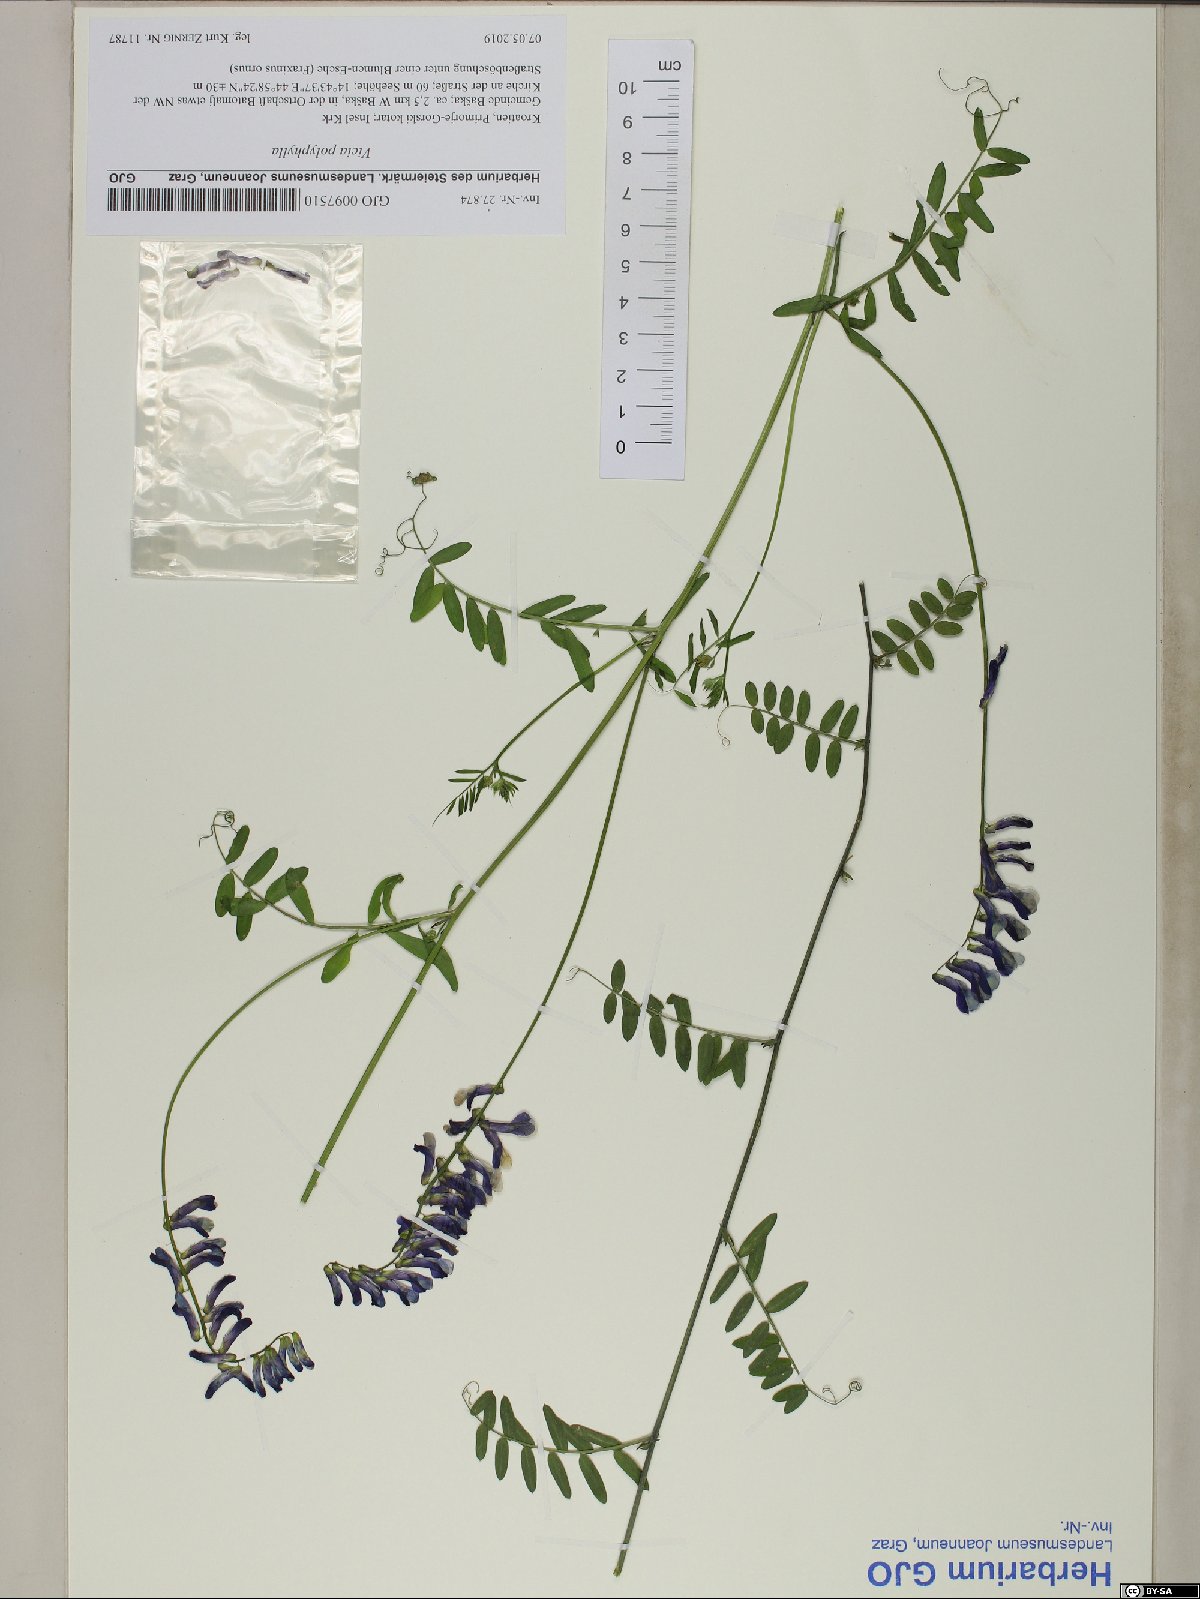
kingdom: Plantae
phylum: Tracheophyta
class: Magnoliopsida
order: Fabales
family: Fabaceae
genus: Vicia
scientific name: Vicia tenuifolia
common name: Fine-leaved vetch
